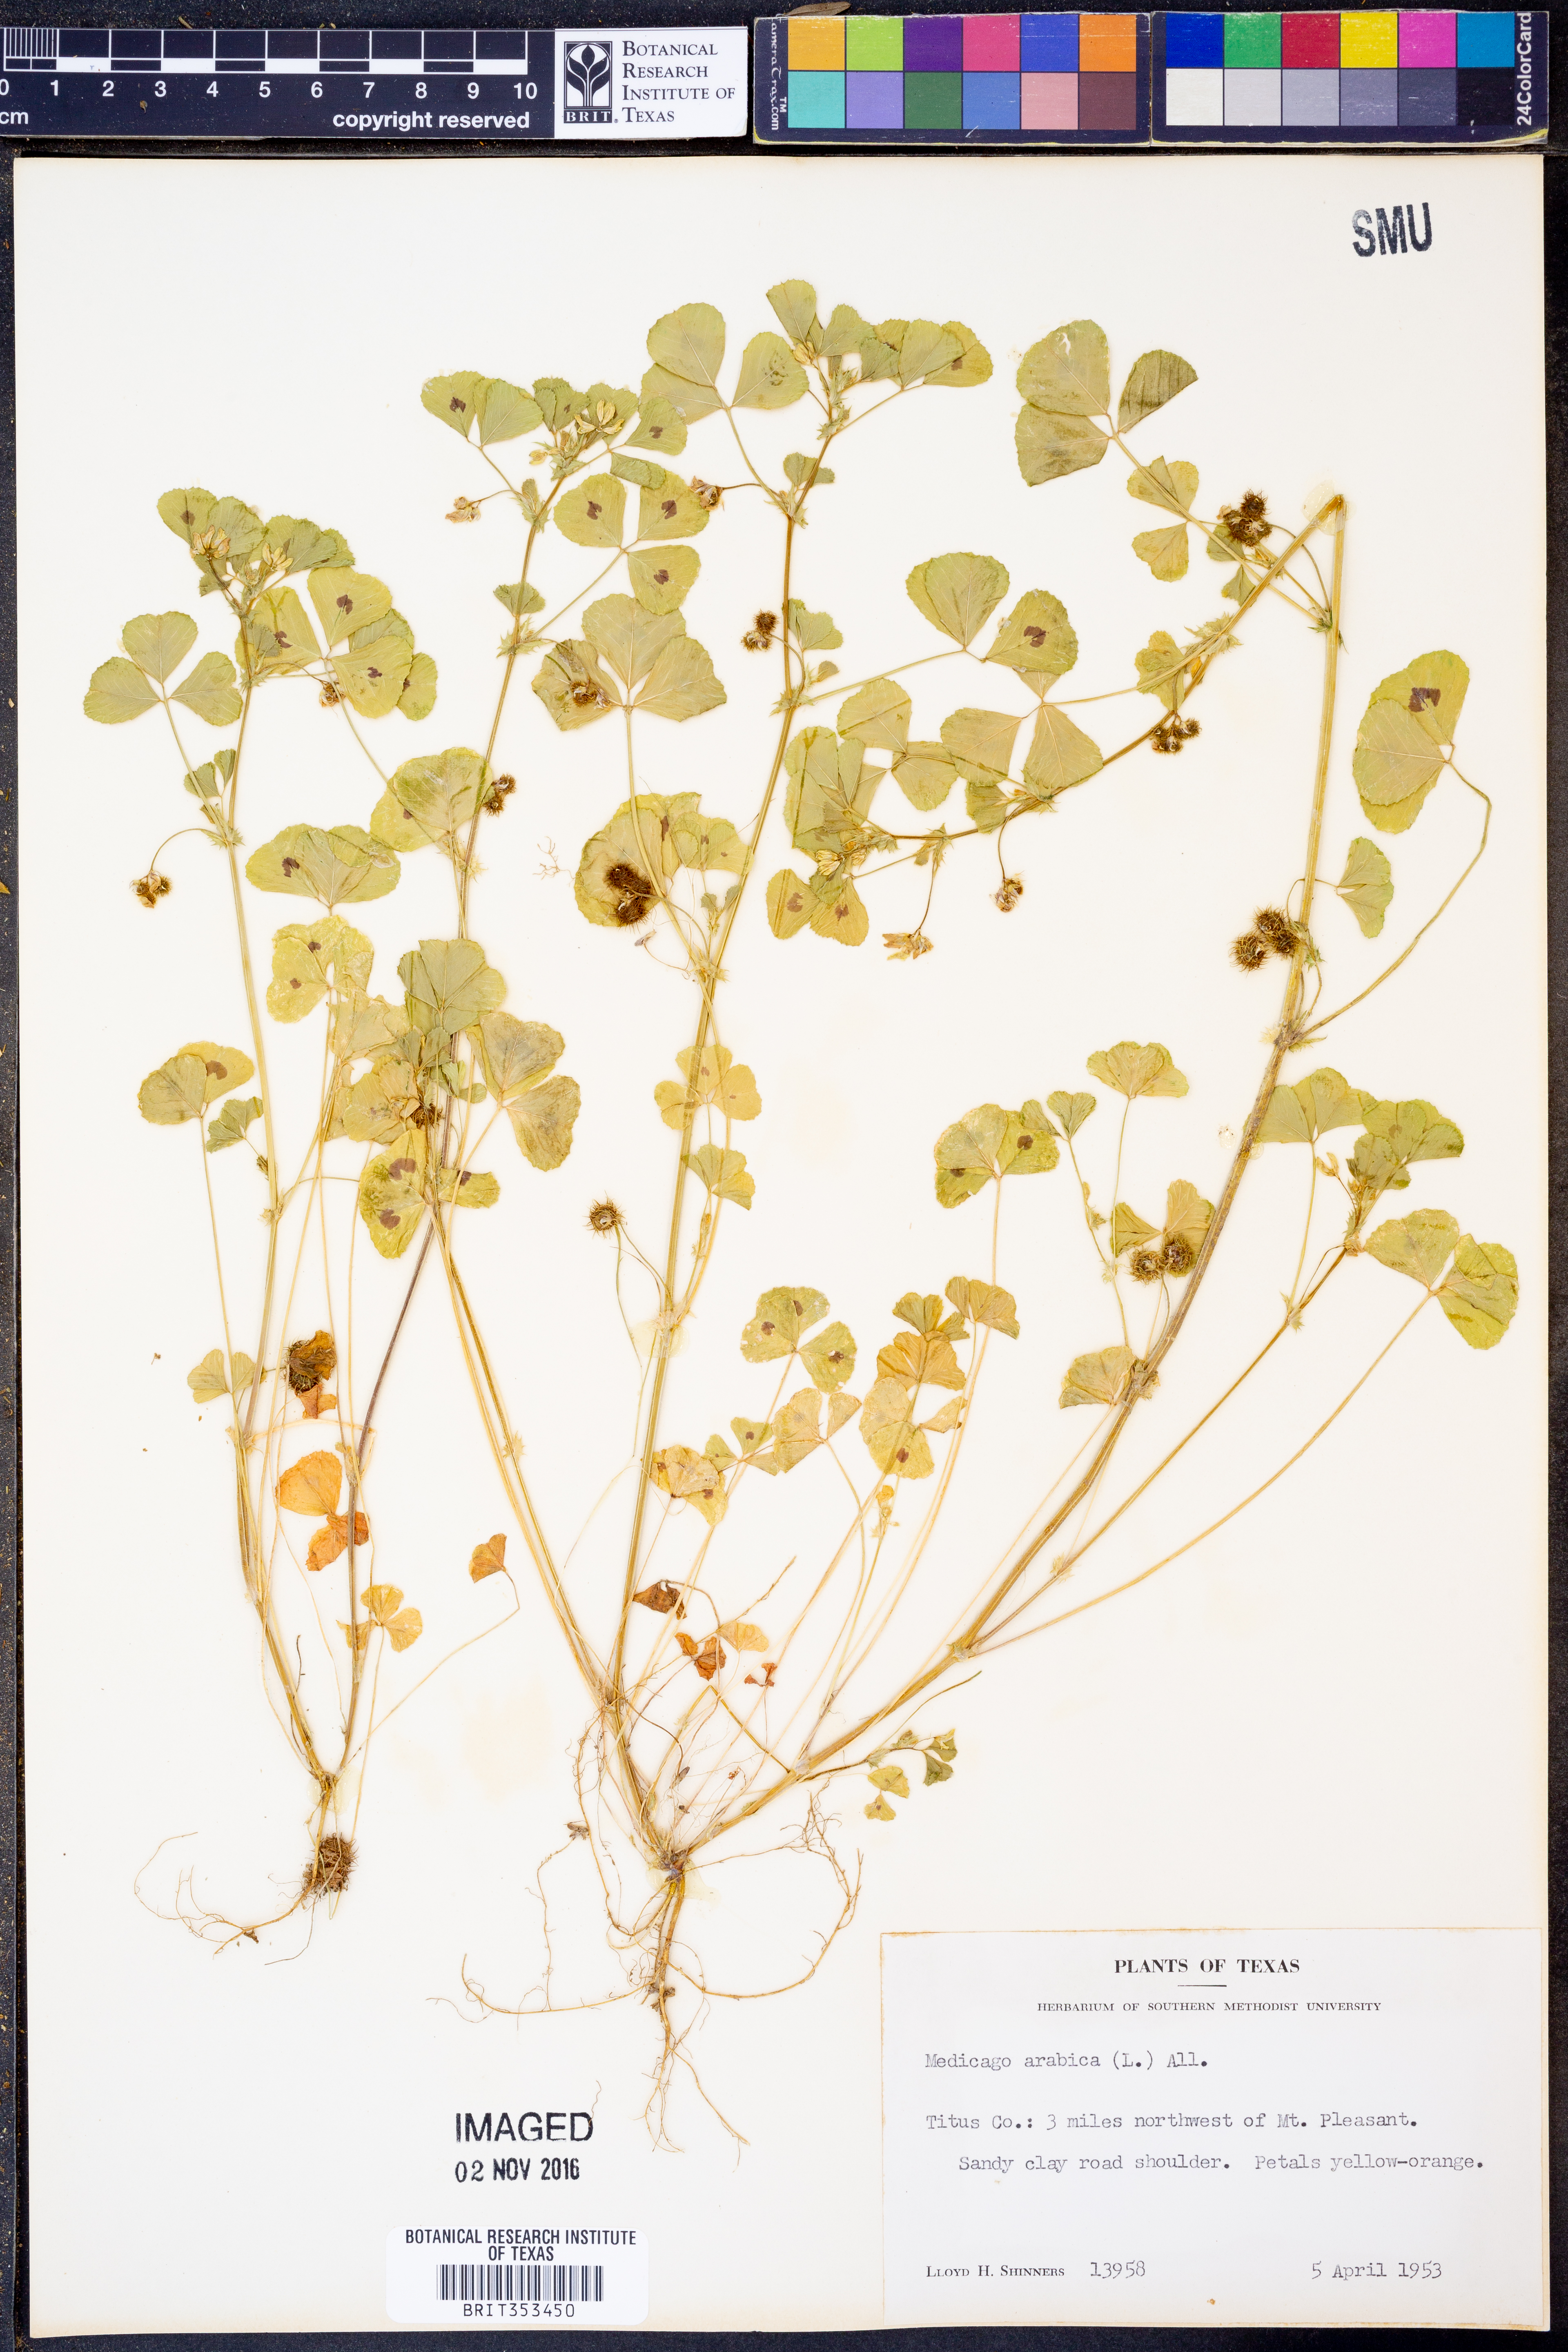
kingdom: Plantae
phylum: Tracheophyta
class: Magnoliopsida
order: Fabales
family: Fabaceae
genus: Medicago
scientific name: Medicago arabica
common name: Spotted medick
